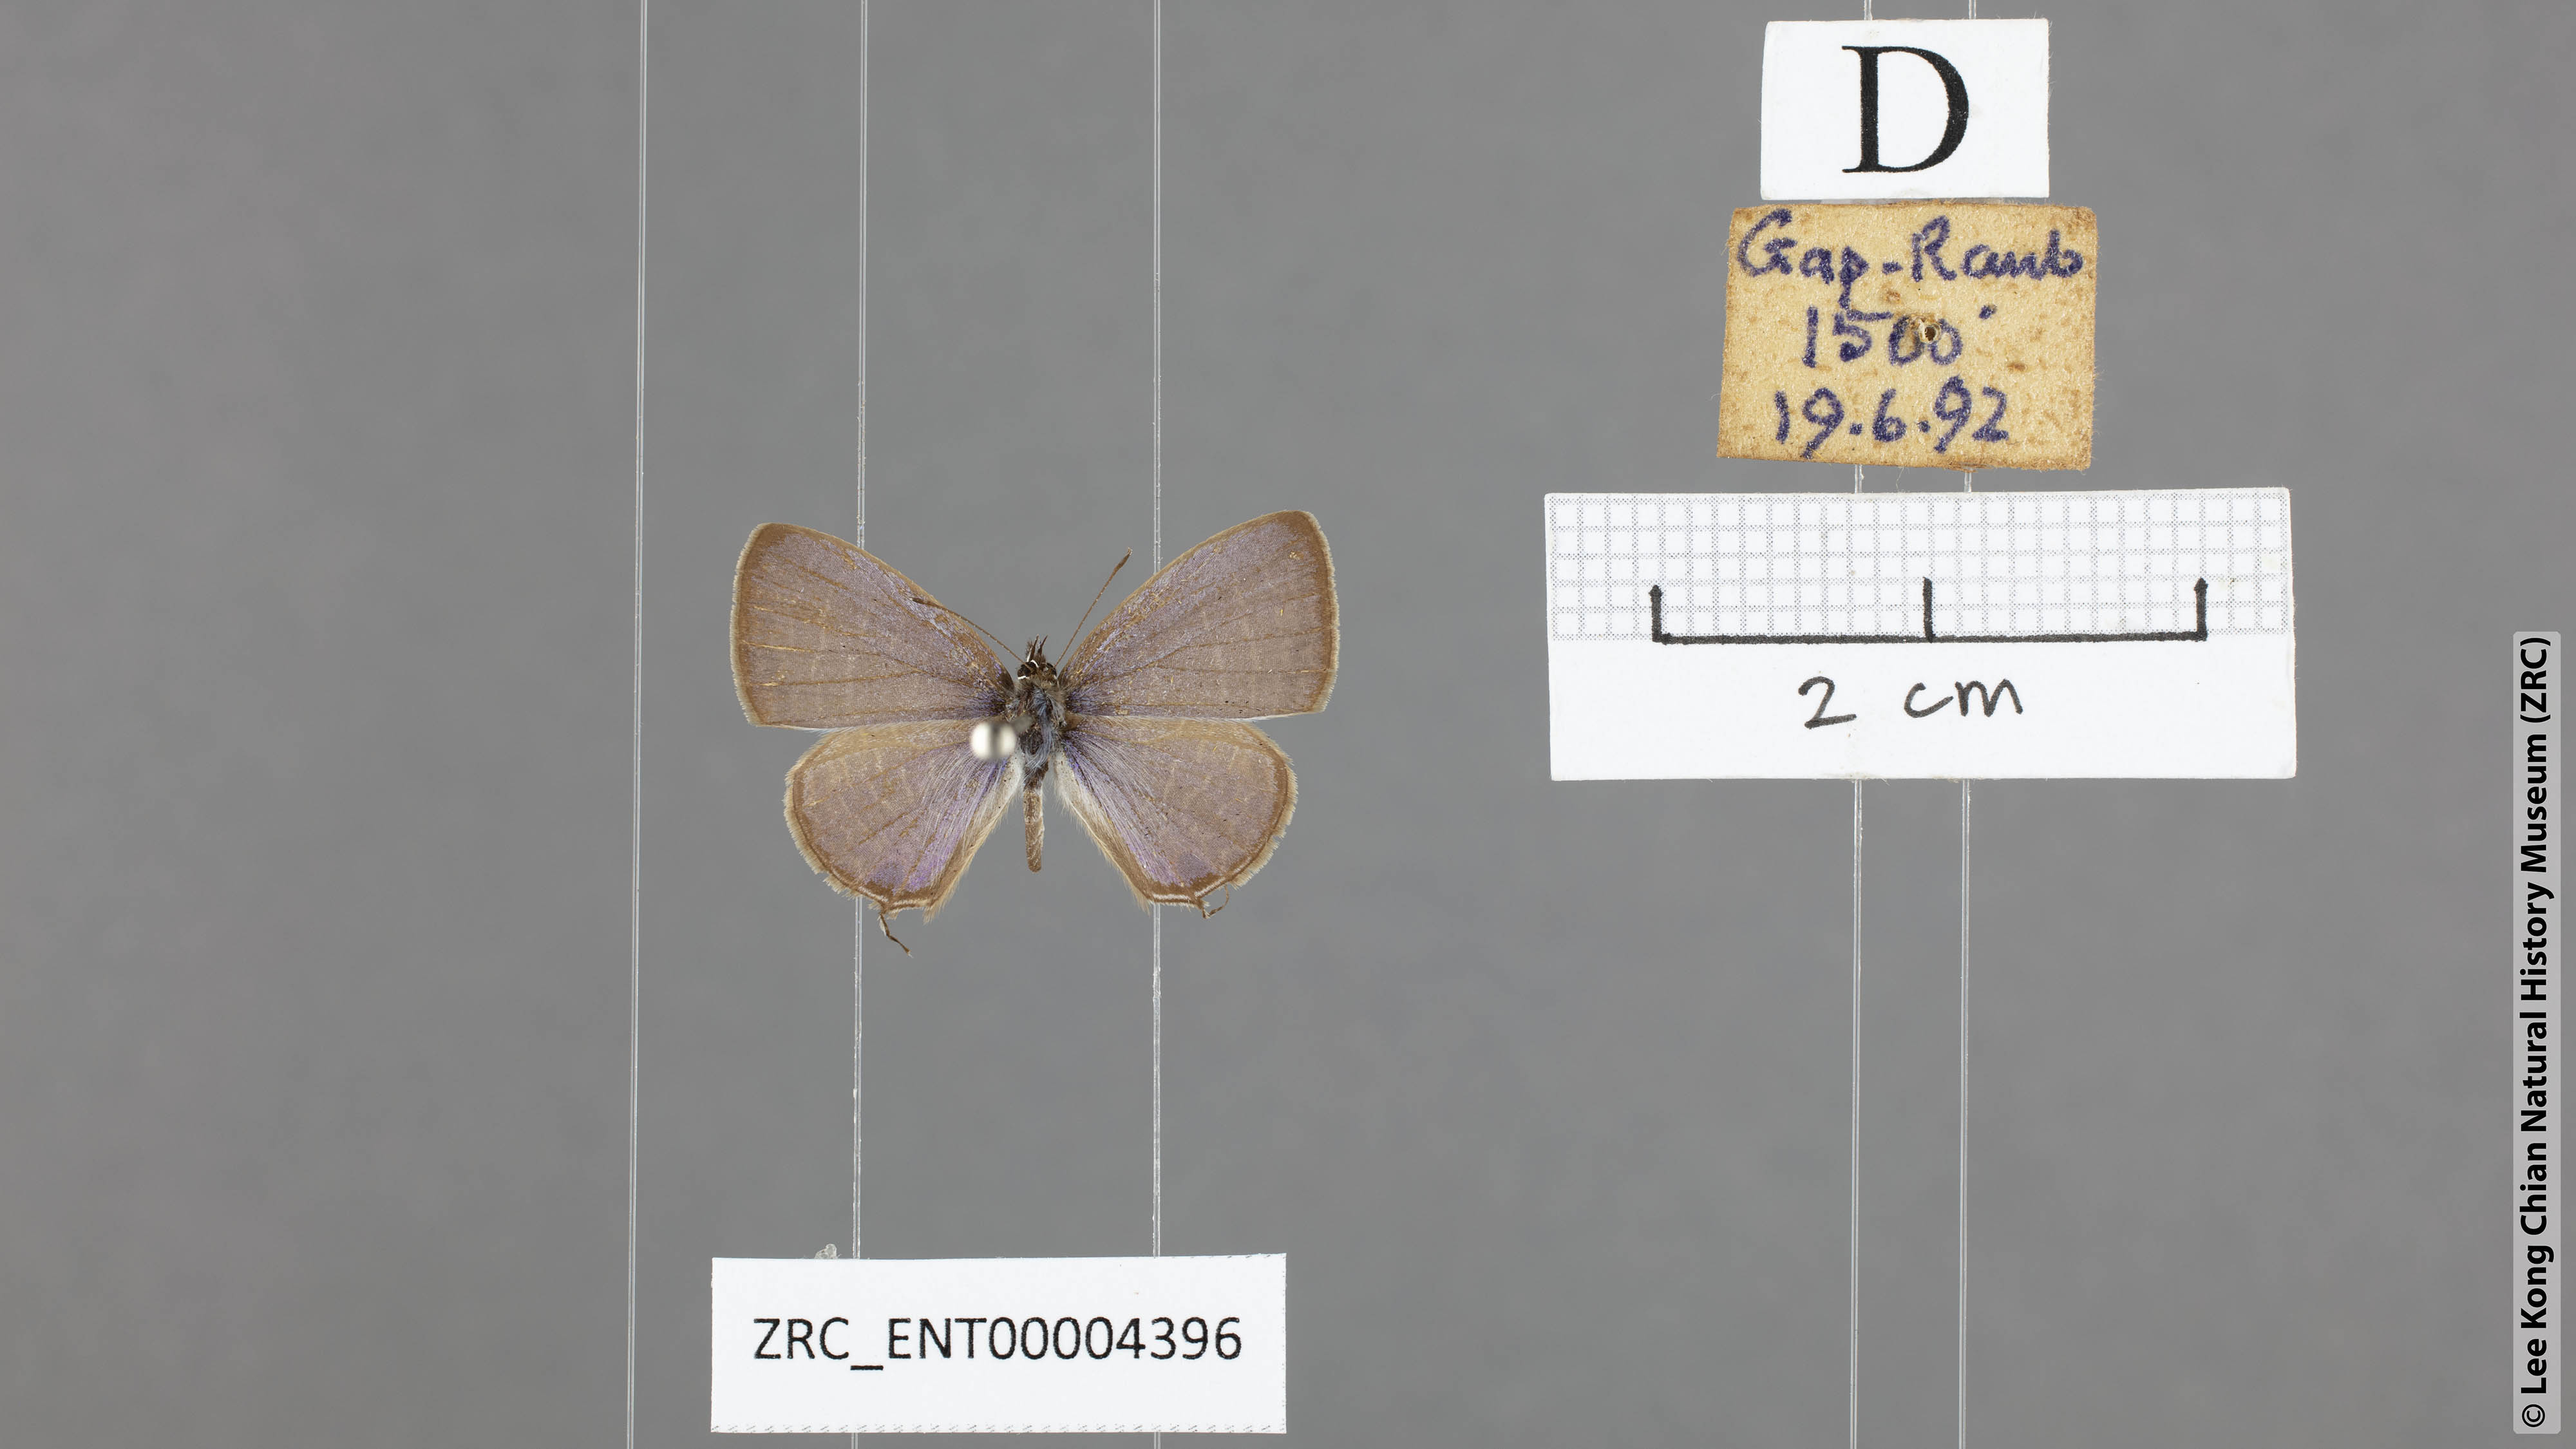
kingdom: Animalia
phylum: Arthropoda
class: Insecta
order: Lepidoptera
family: Lycaenidae
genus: Nacaduba
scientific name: Nacaduba calauria
